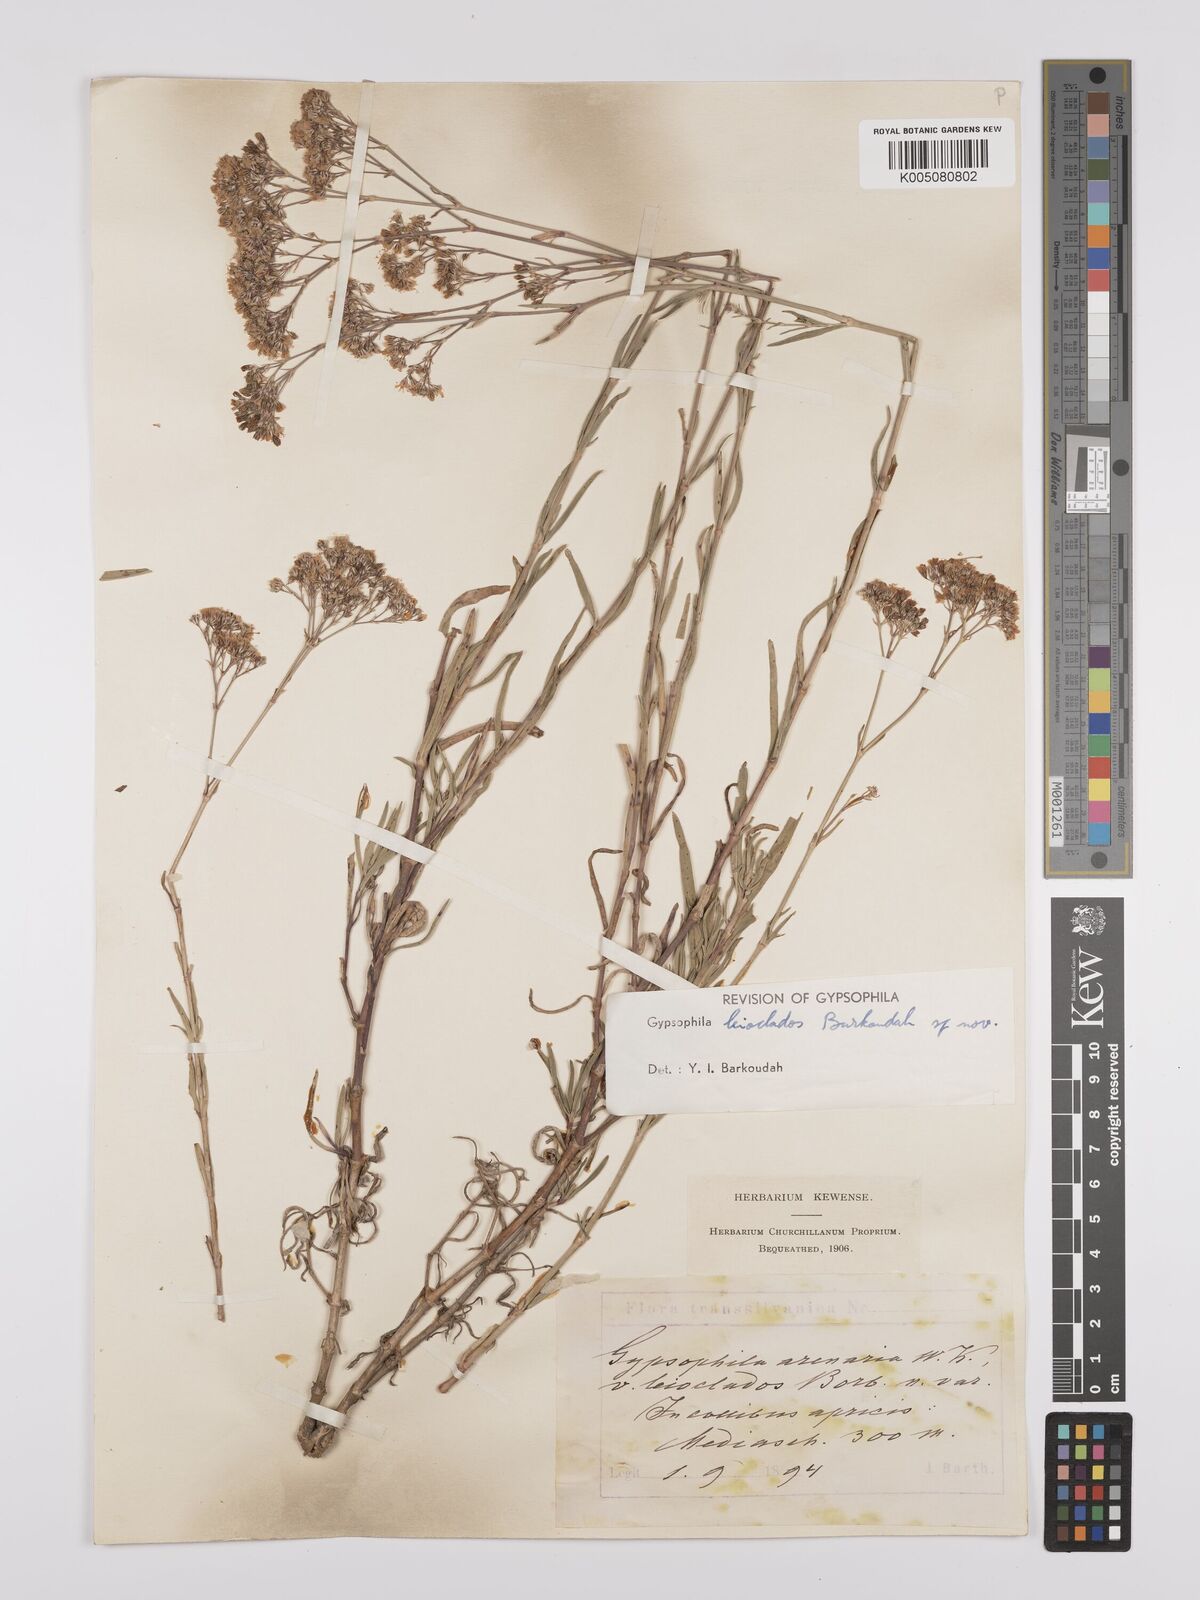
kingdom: Plantae
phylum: Tracheophyta
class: Magnoliopsida
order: Caryophyllales
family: Caryophyllaceae
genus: Gypsophila
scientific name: Gypsophila
